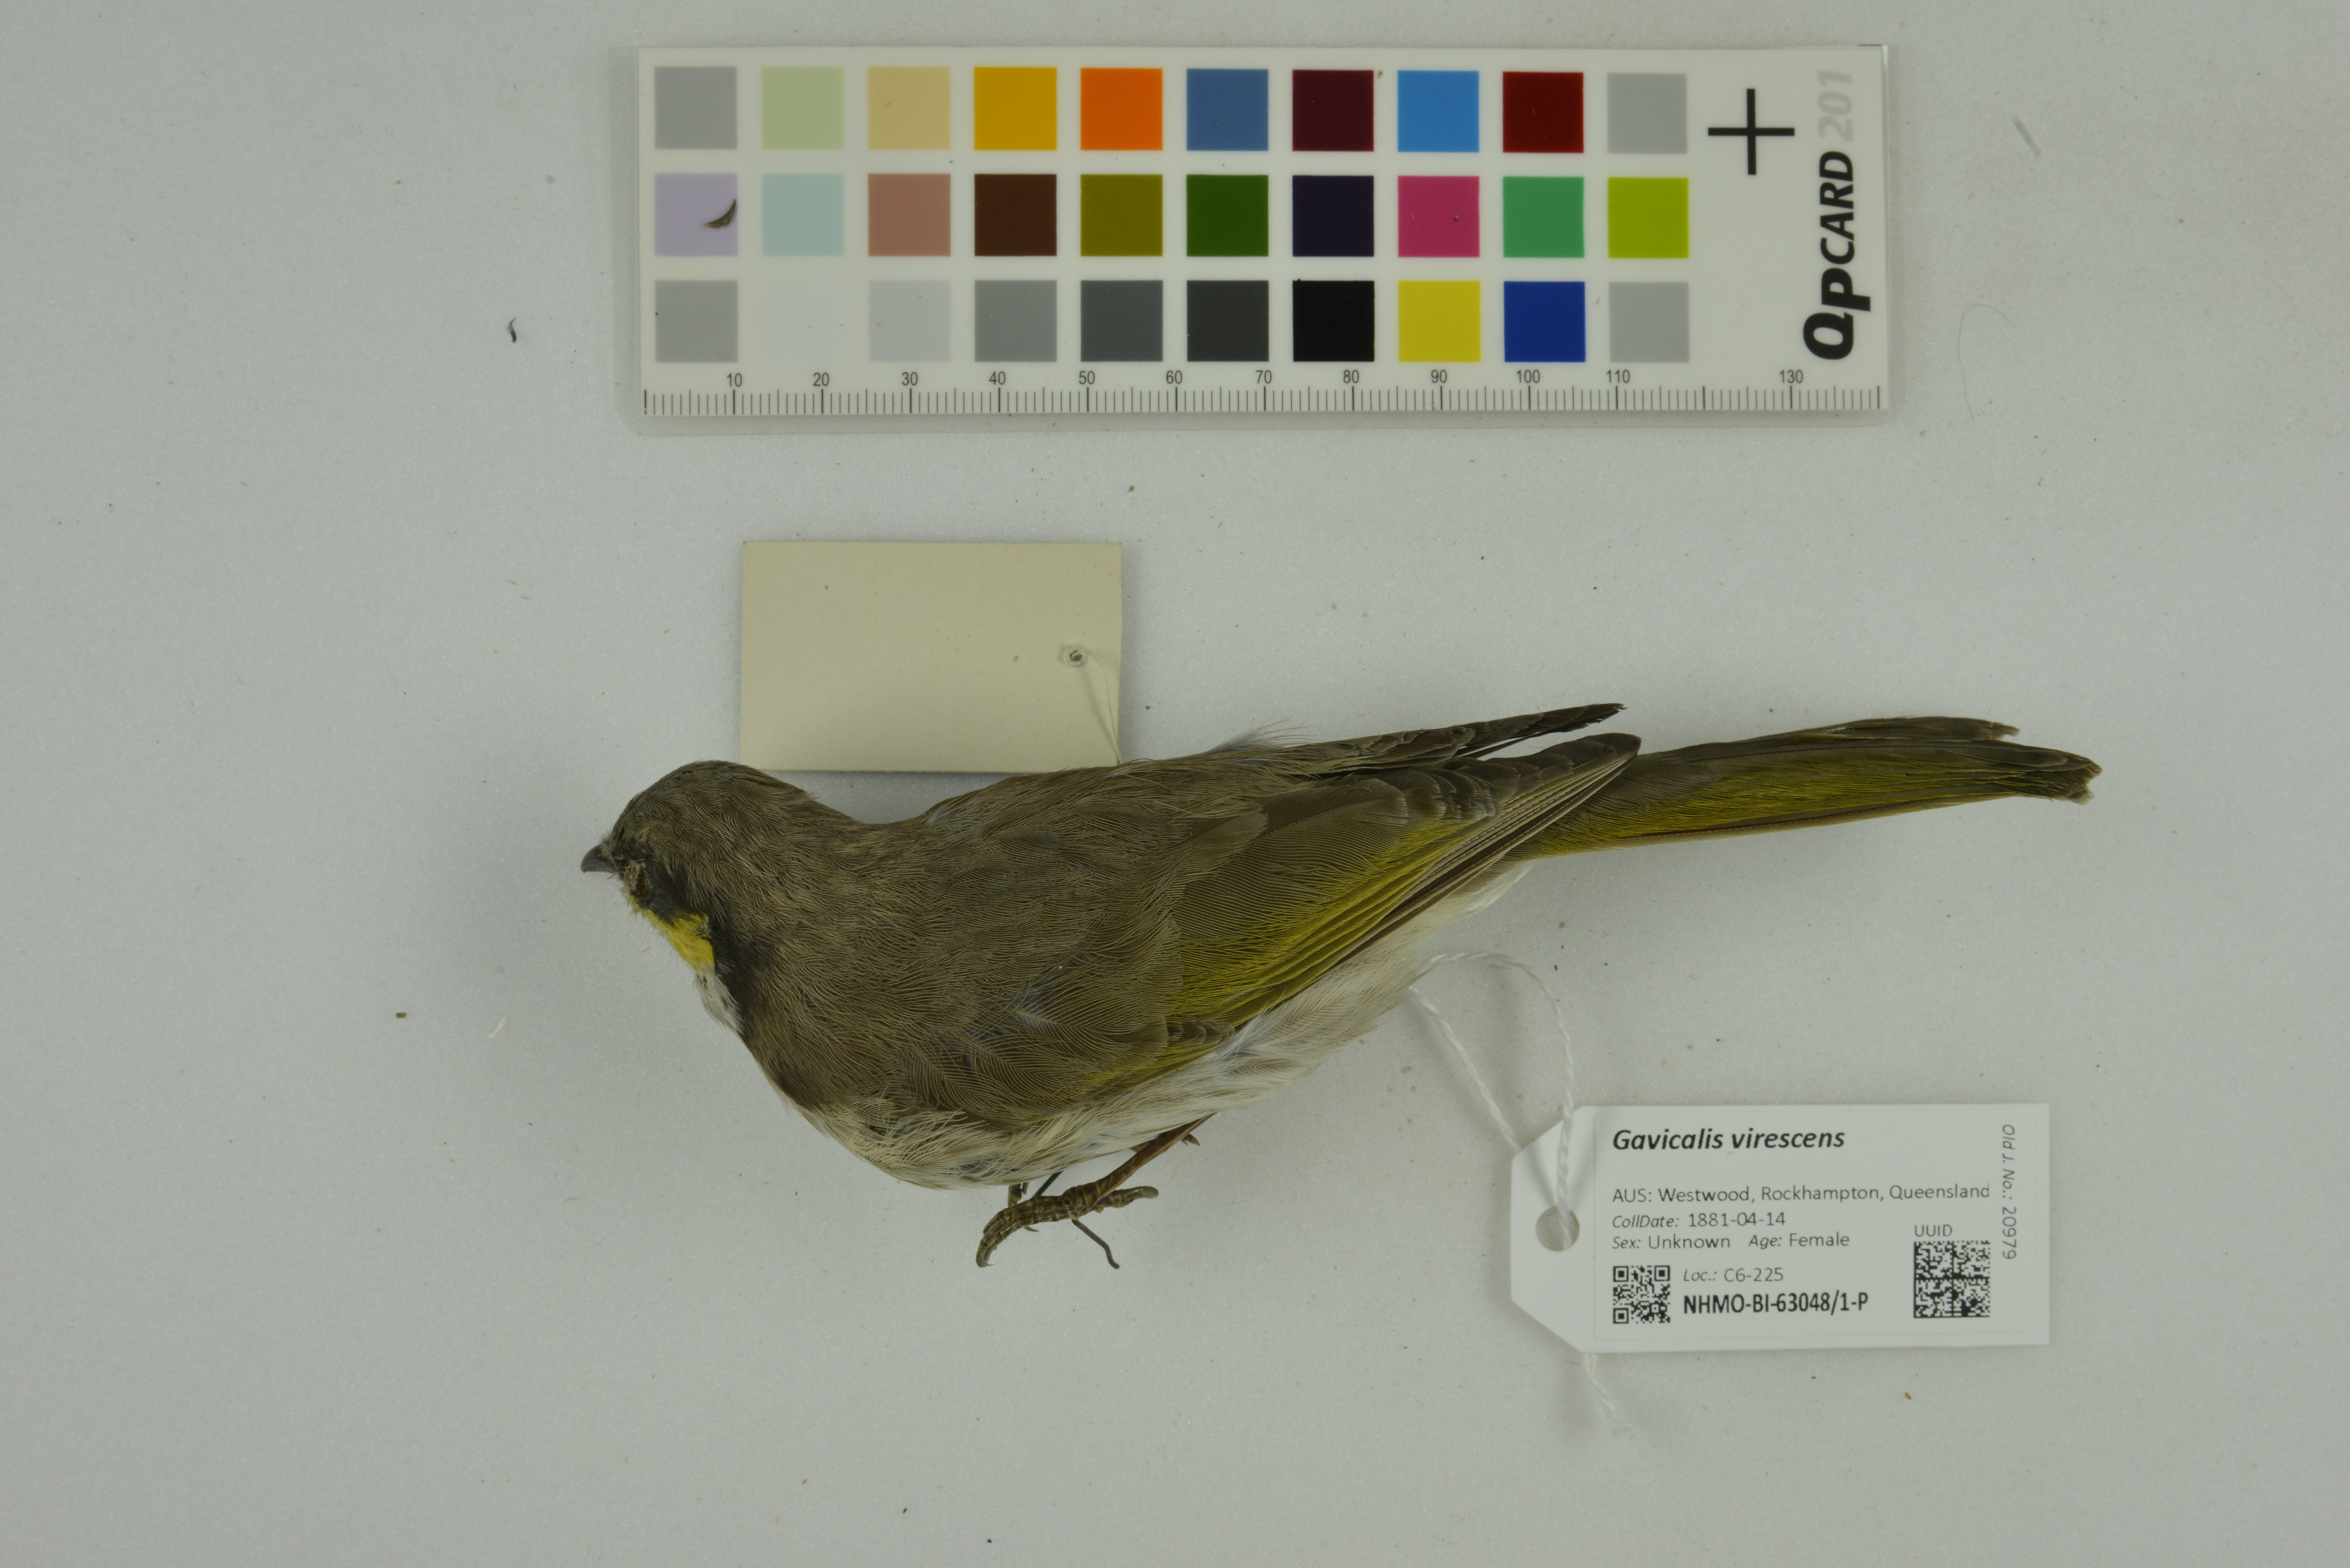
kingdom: Animalia
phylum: Chordata
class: Aves
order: Passeriformes
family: Meliphagidae
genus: Gavicalis
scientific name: Gavicalis virescens
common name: Singing honeyeater
